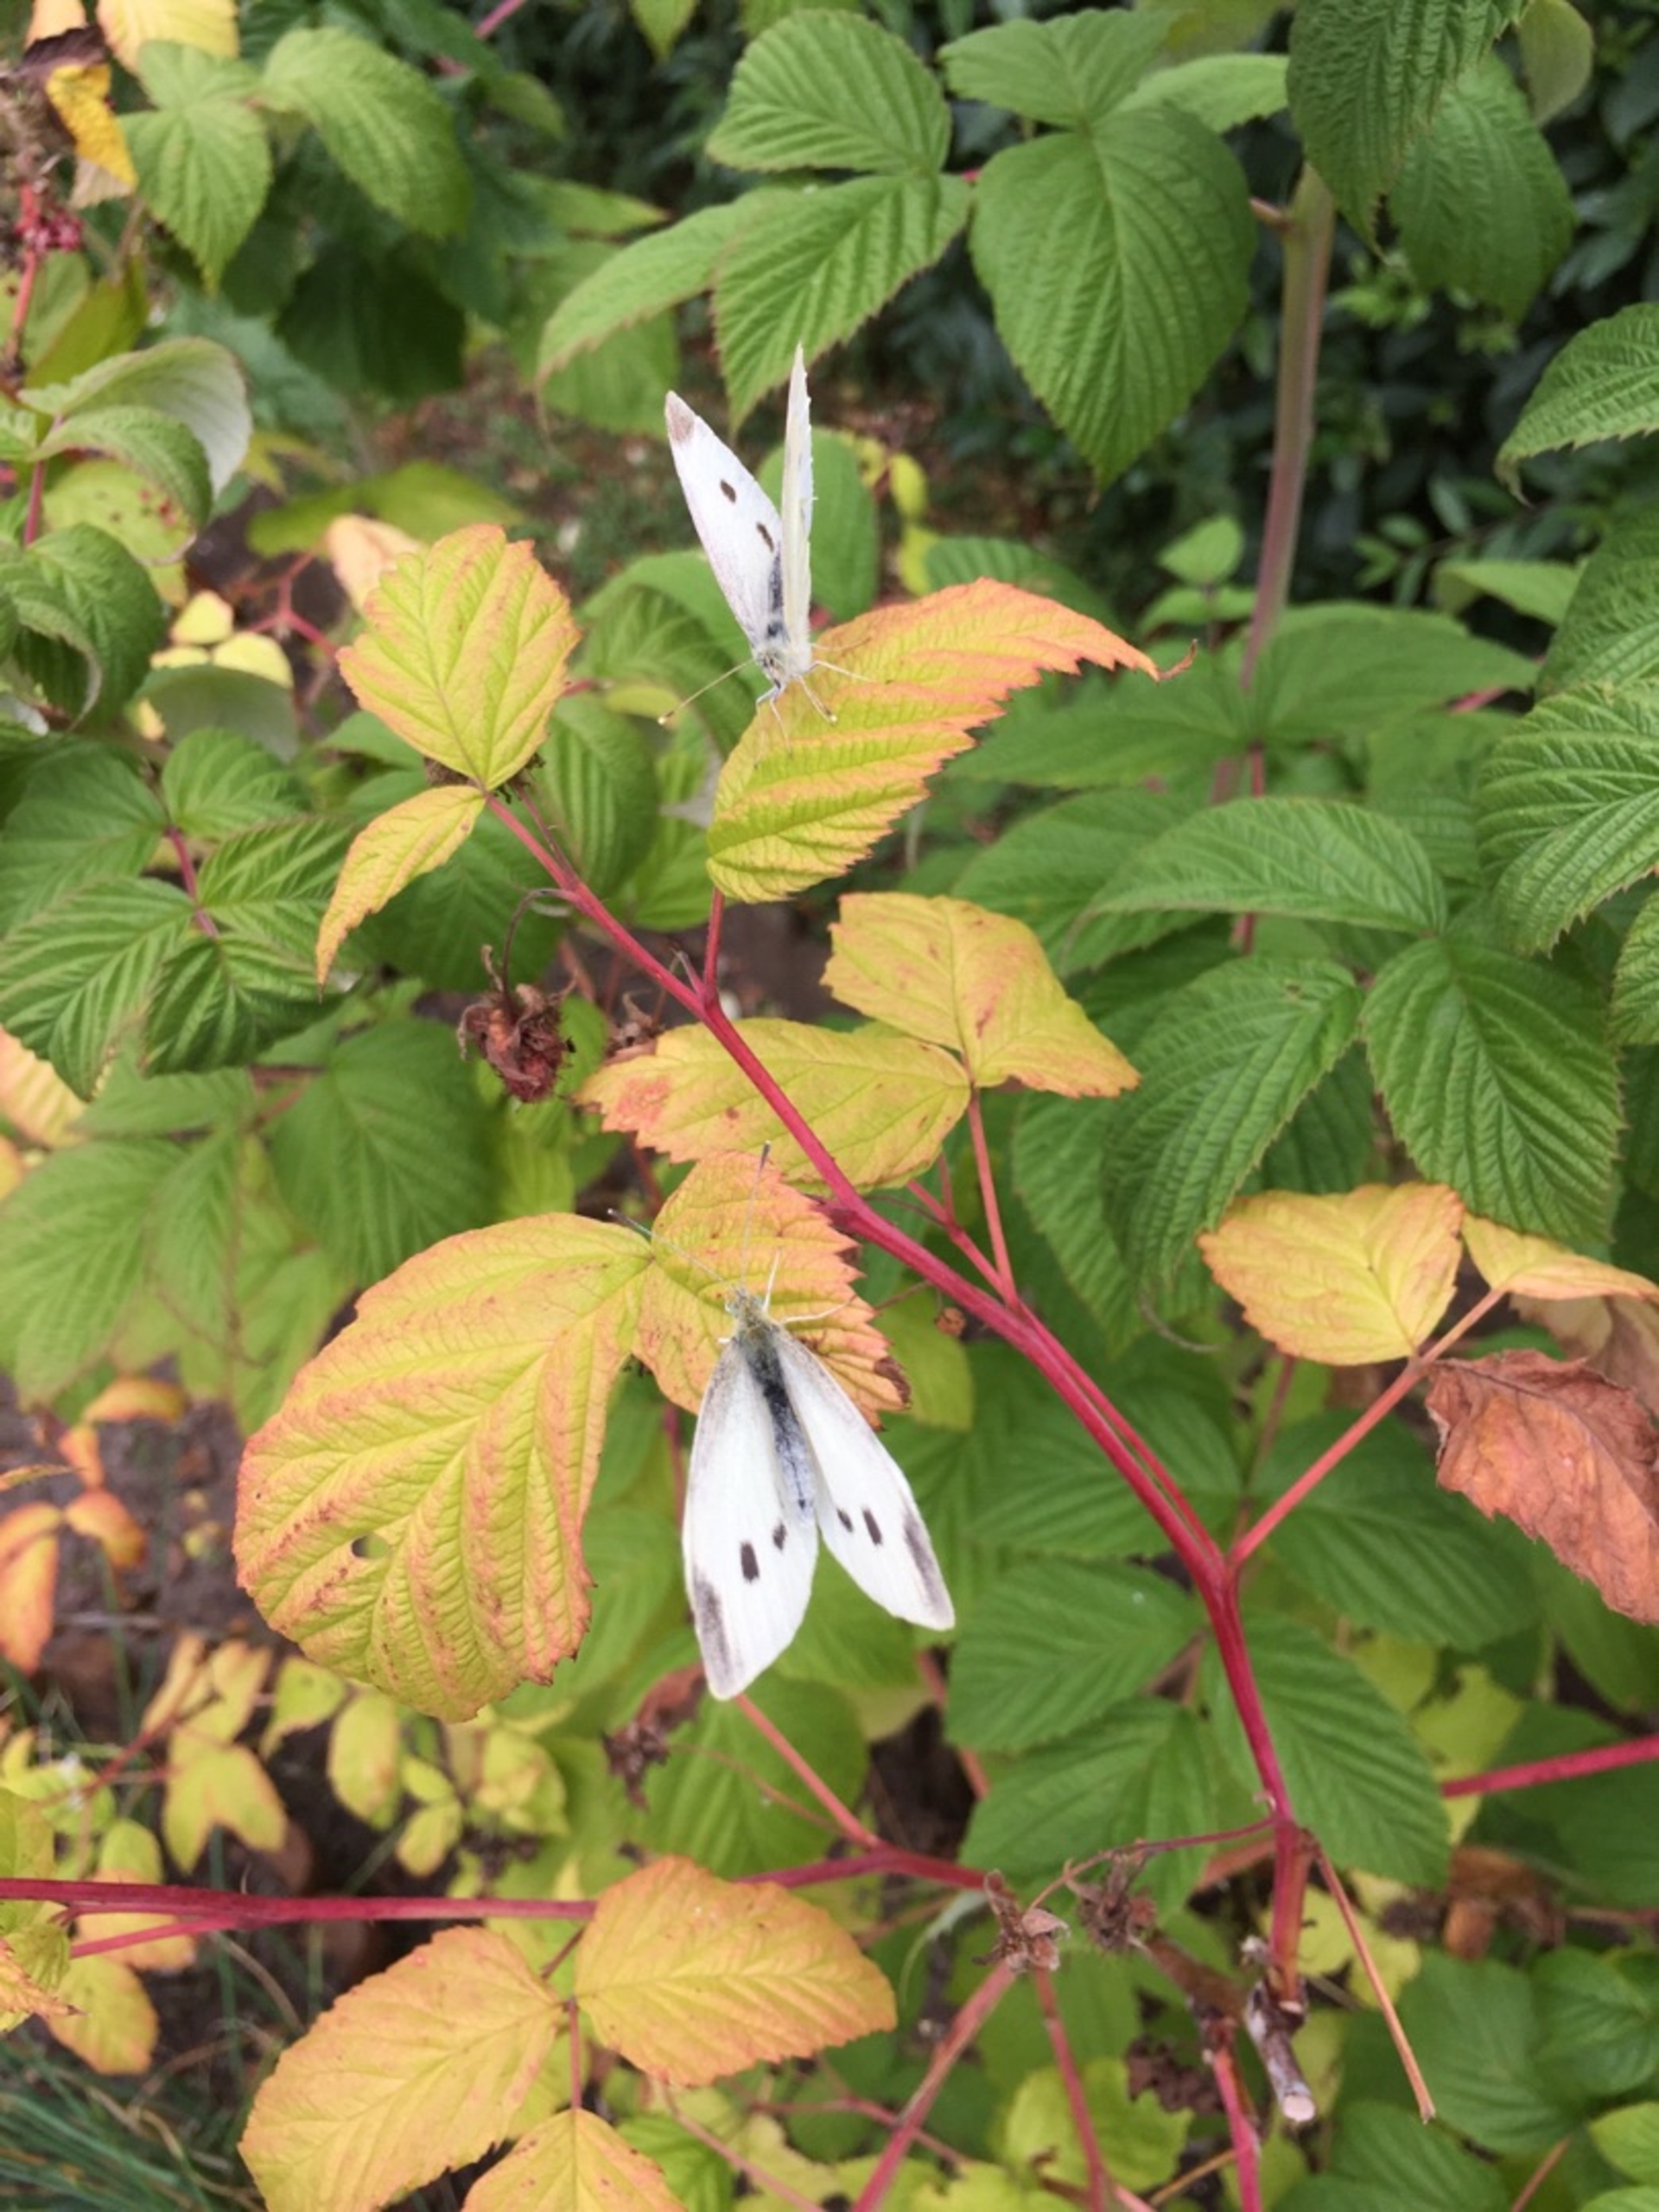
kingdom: Animalia
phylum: Arthropoda
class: Insecta
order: Lepidoptera
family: Pieridae
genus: Pieris
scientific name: Pieris rapae
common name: Lille kålsommerfugl
